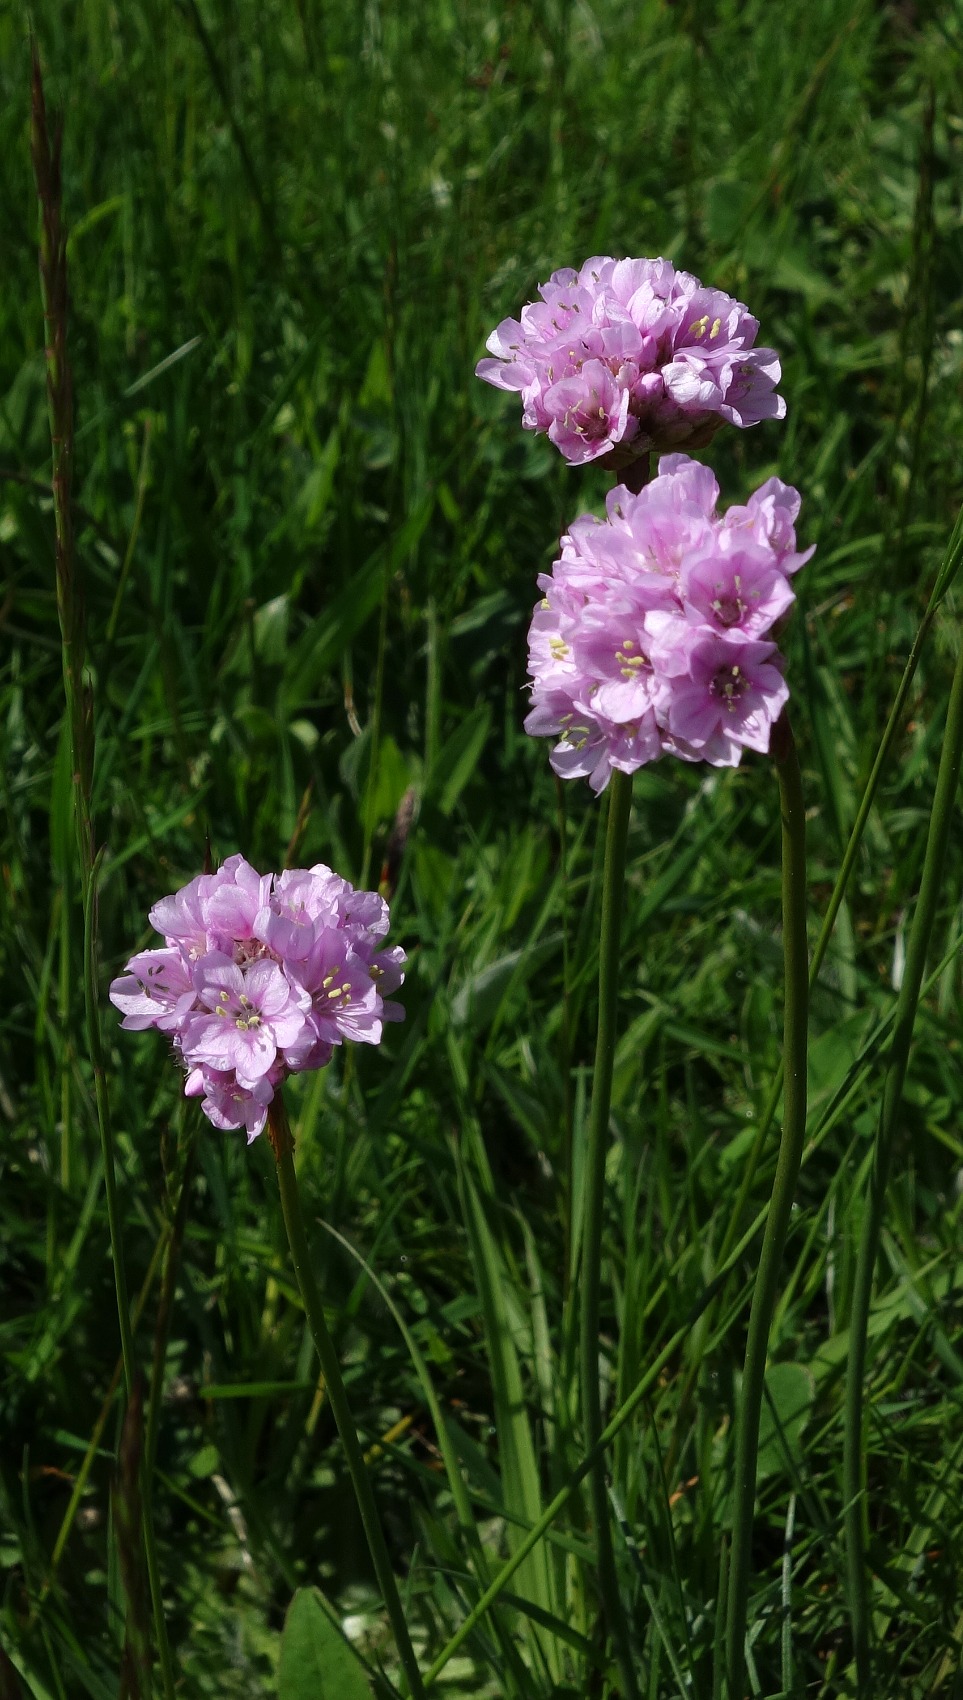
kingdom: Plantae
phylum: Tracheophyta
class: Magnoliopsida
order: Caryophyllales
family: Plumbaginaceae
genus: Armeria
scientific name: Armeria maritima
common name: Engelskgræs
